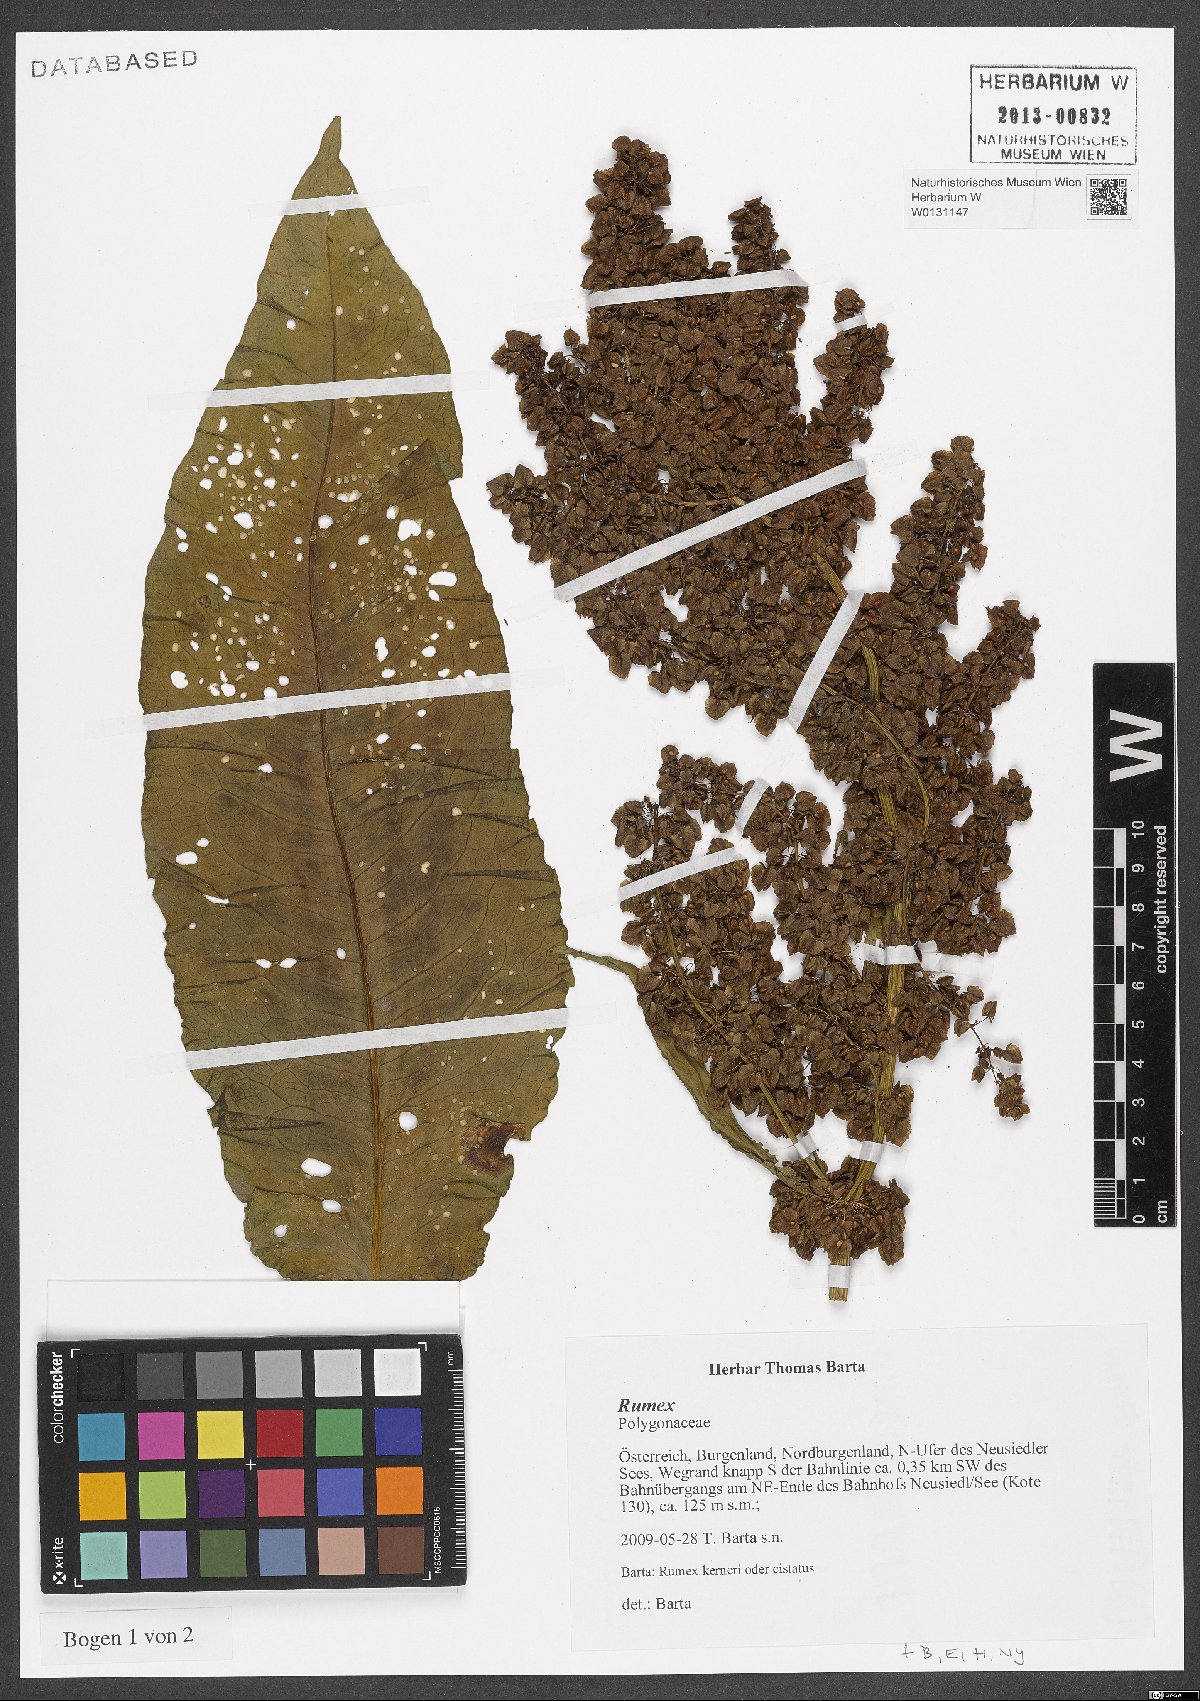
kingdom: Plantae
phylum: Tracheophyta
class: Magnoliopsida
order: Caryophyllales
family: Polygonaceae
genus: Rumex
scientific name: Rumex
